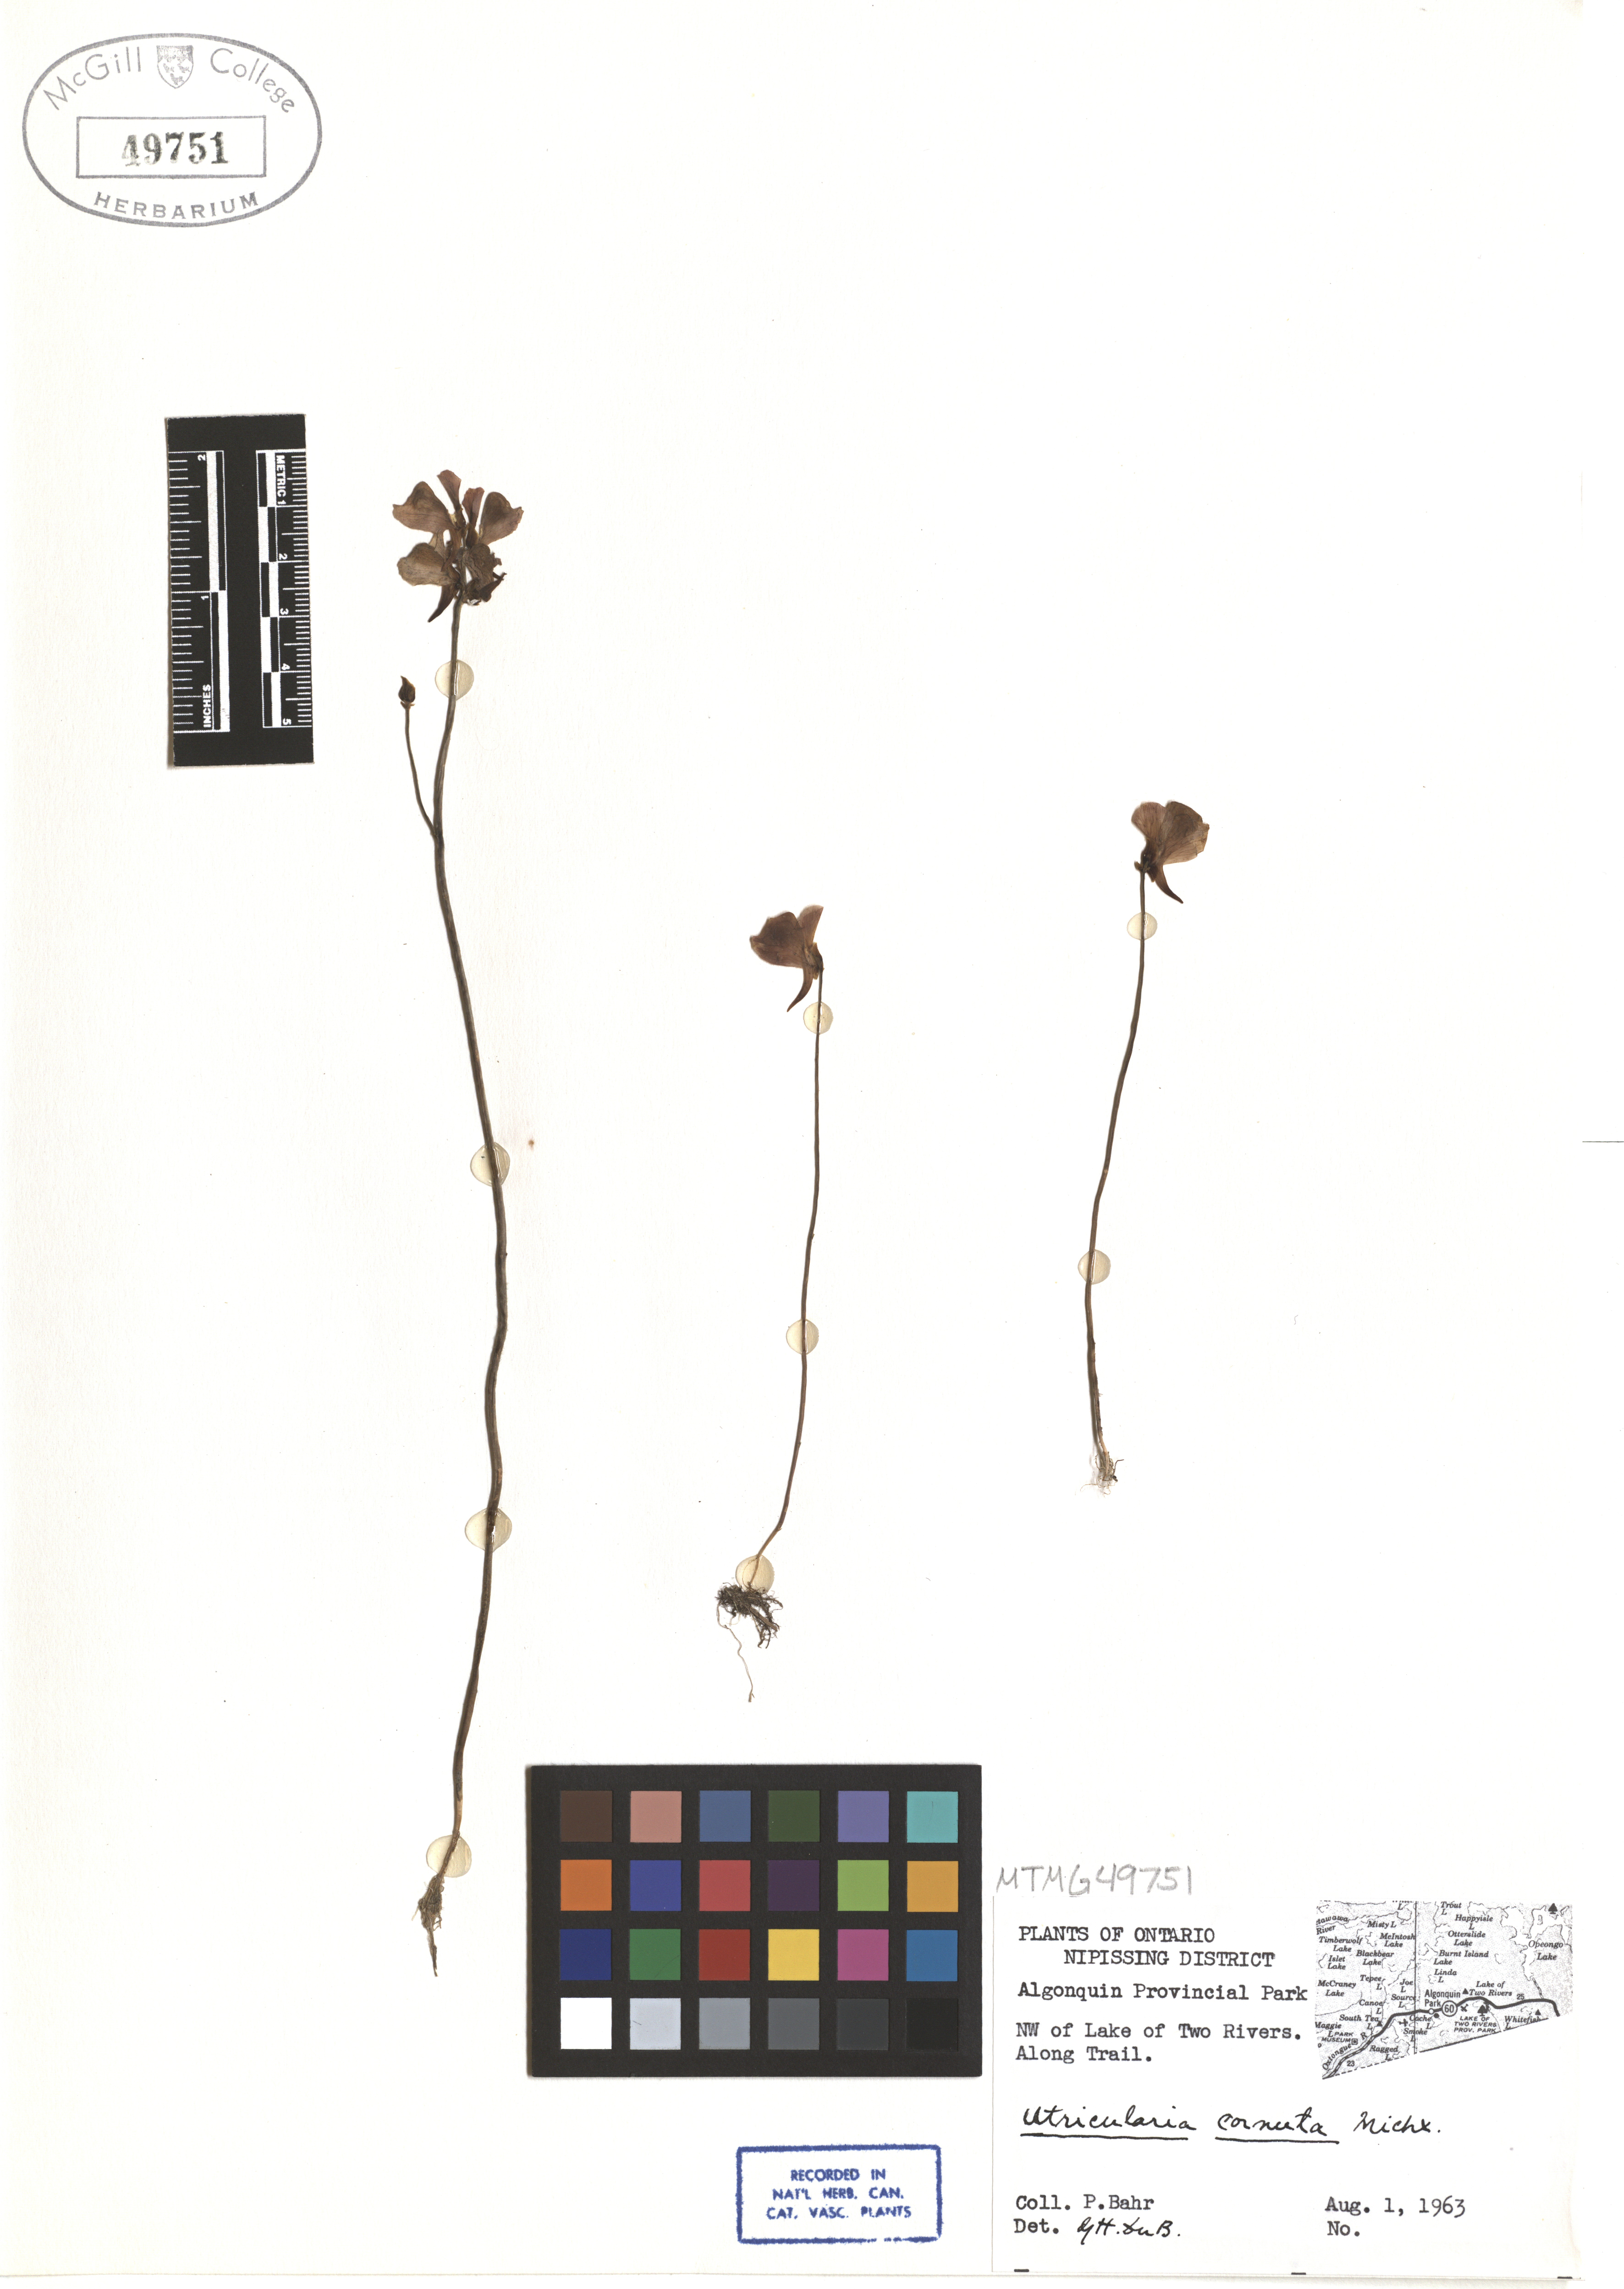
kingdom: Plantae
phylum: Tracheophyta
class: Magnoliopsida
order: Lamiales
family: Lentibulariaceae
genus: Utricularia
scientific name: Utricularia cornuta
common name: Horned bladderwort
